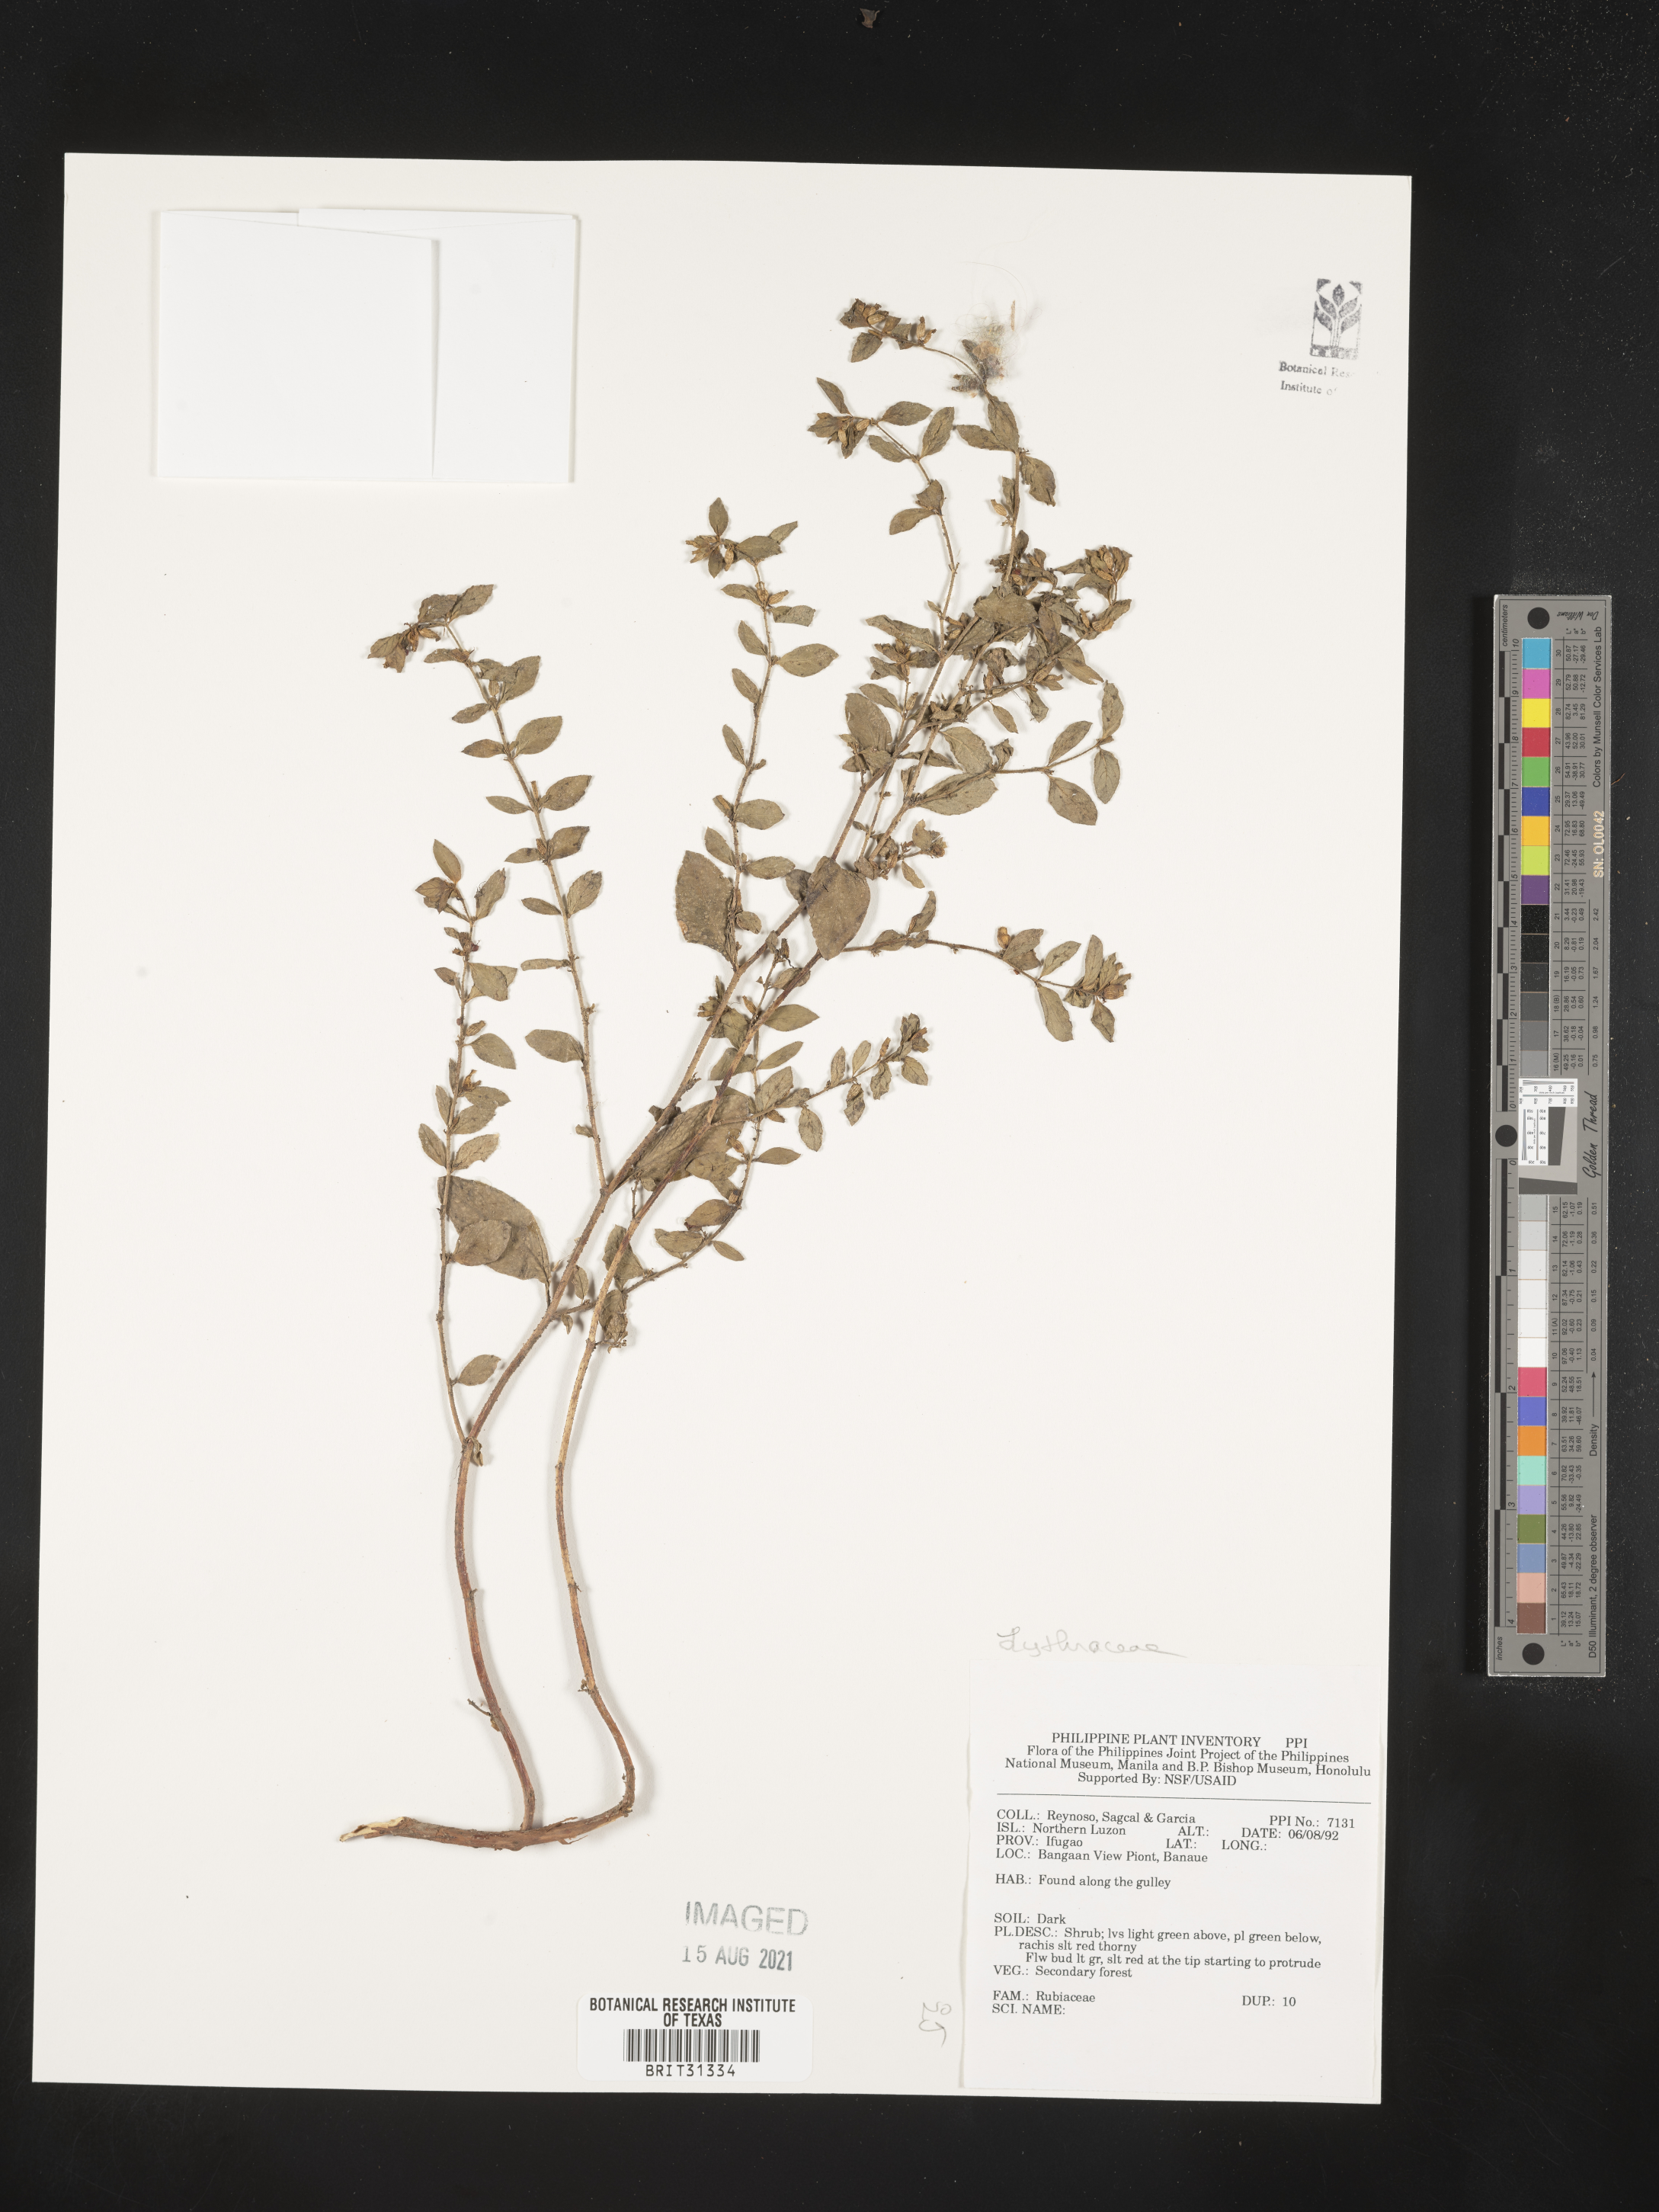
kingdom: Plantae
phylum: Tracheophyta
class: Magnoliopsida
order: Myrtales
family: Lythraceae
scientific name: Lythraceae
